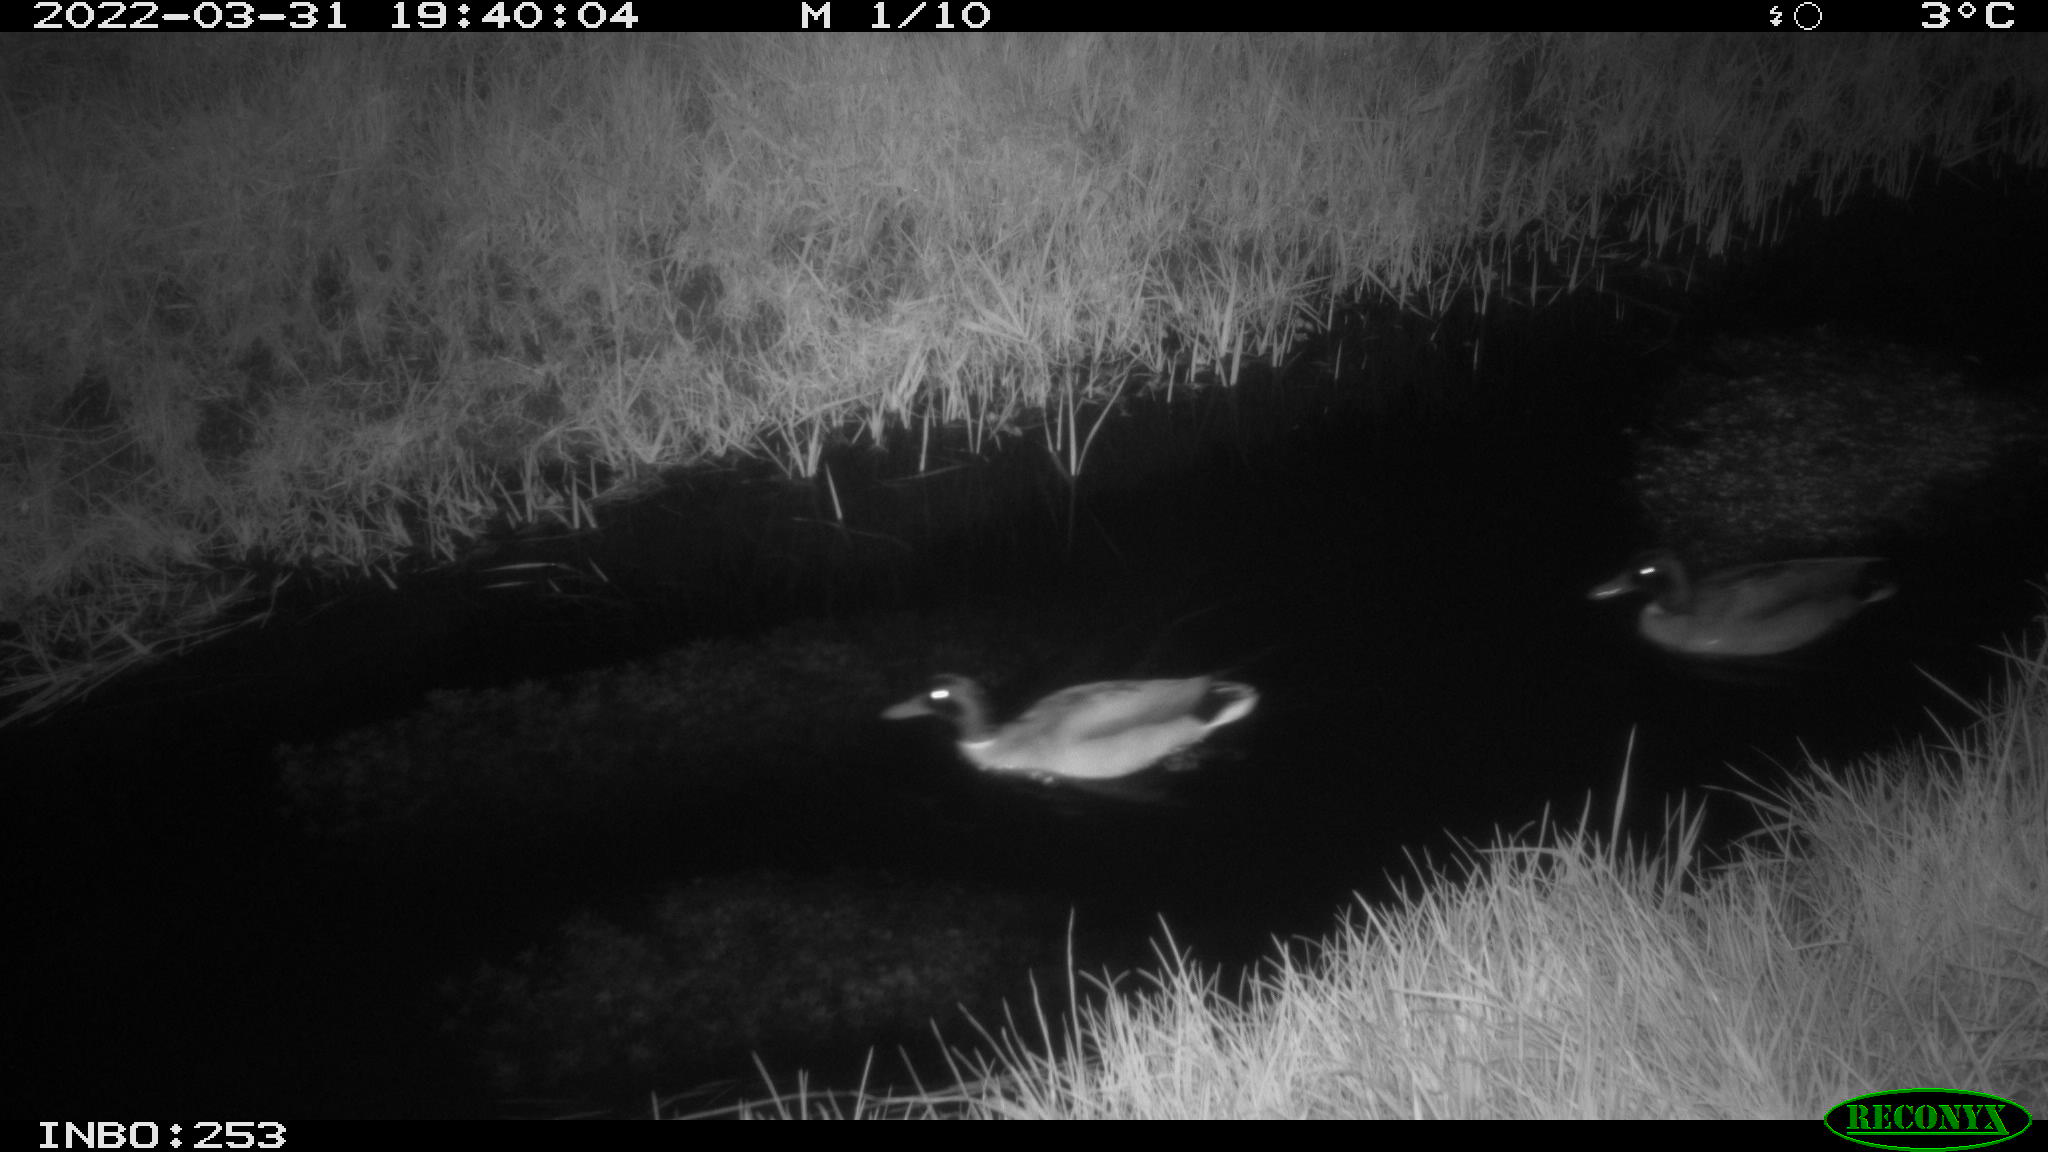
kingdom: Animalia
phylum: Chordata
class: Aves
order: Anseriformes
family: Anatidae
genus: Anas
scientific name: Anas platyrhynchos
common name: Mallard
